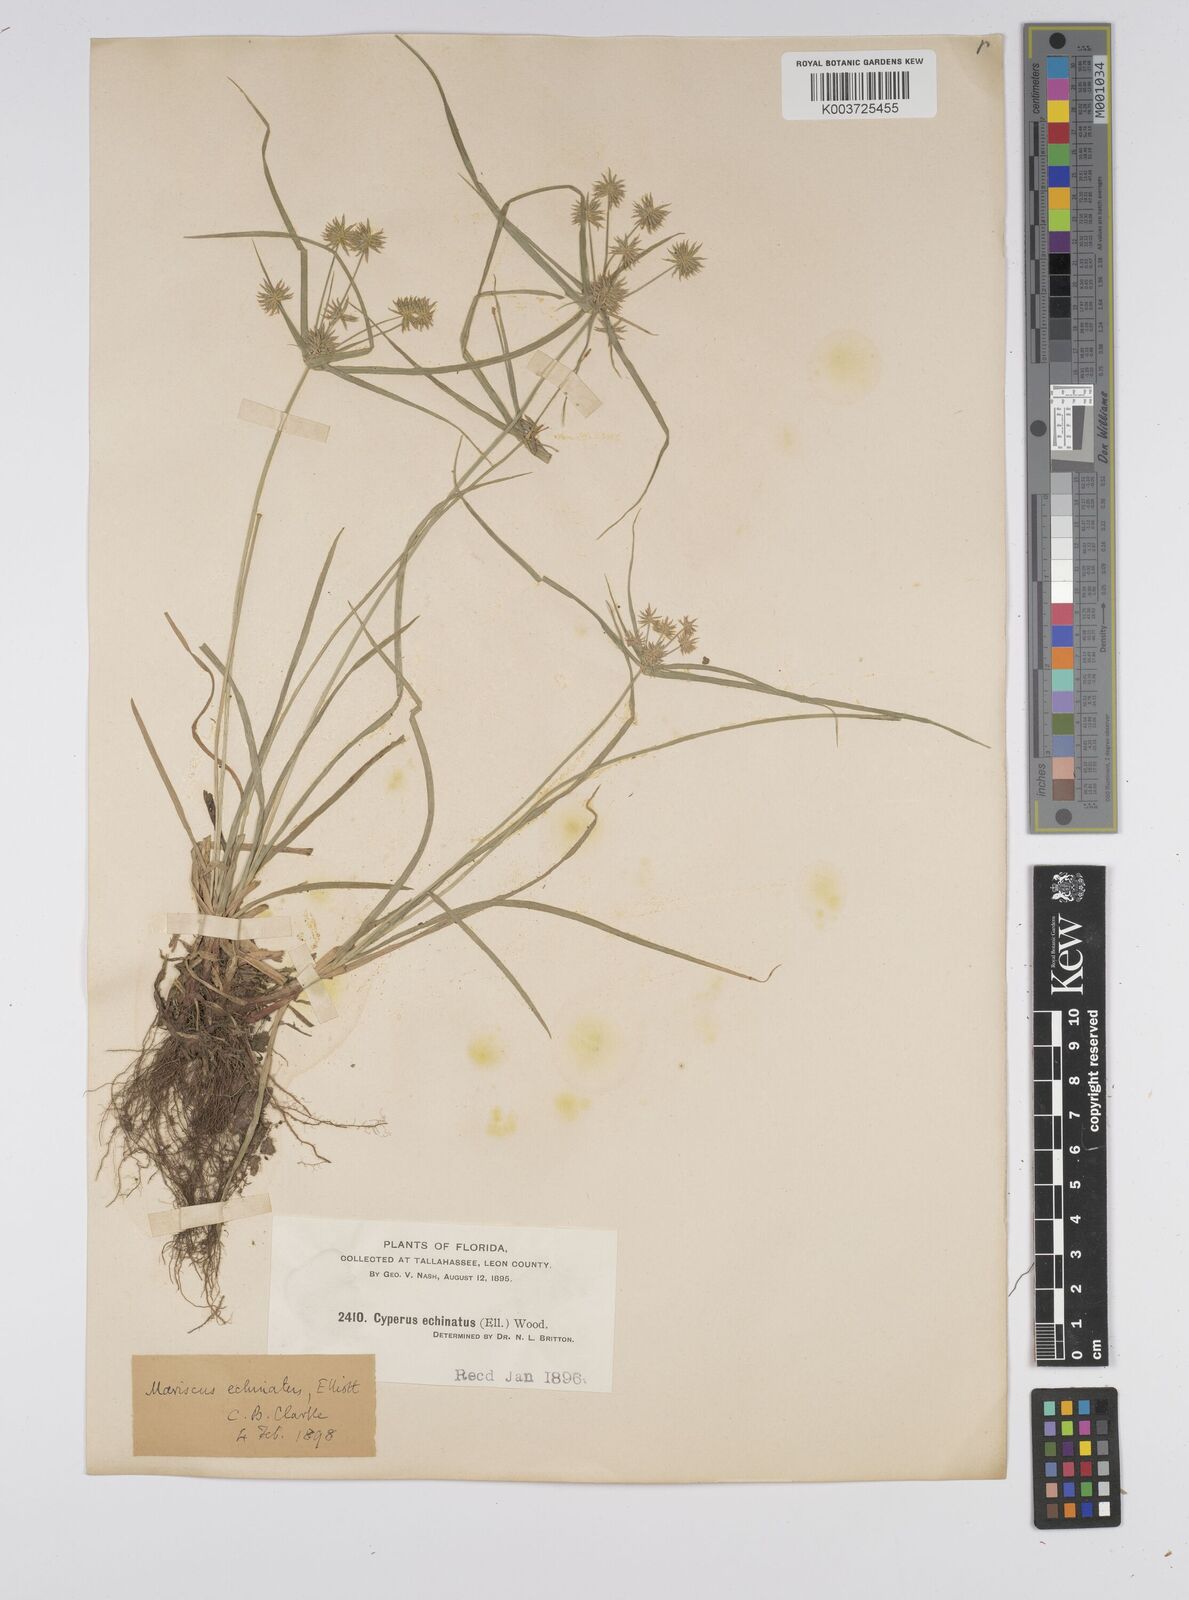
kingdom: Plantae
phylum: Tracheophyta
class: Liliopsida
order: Poales
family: Cyperaceae
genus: Cyperus
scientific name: Cyperus luzulae
